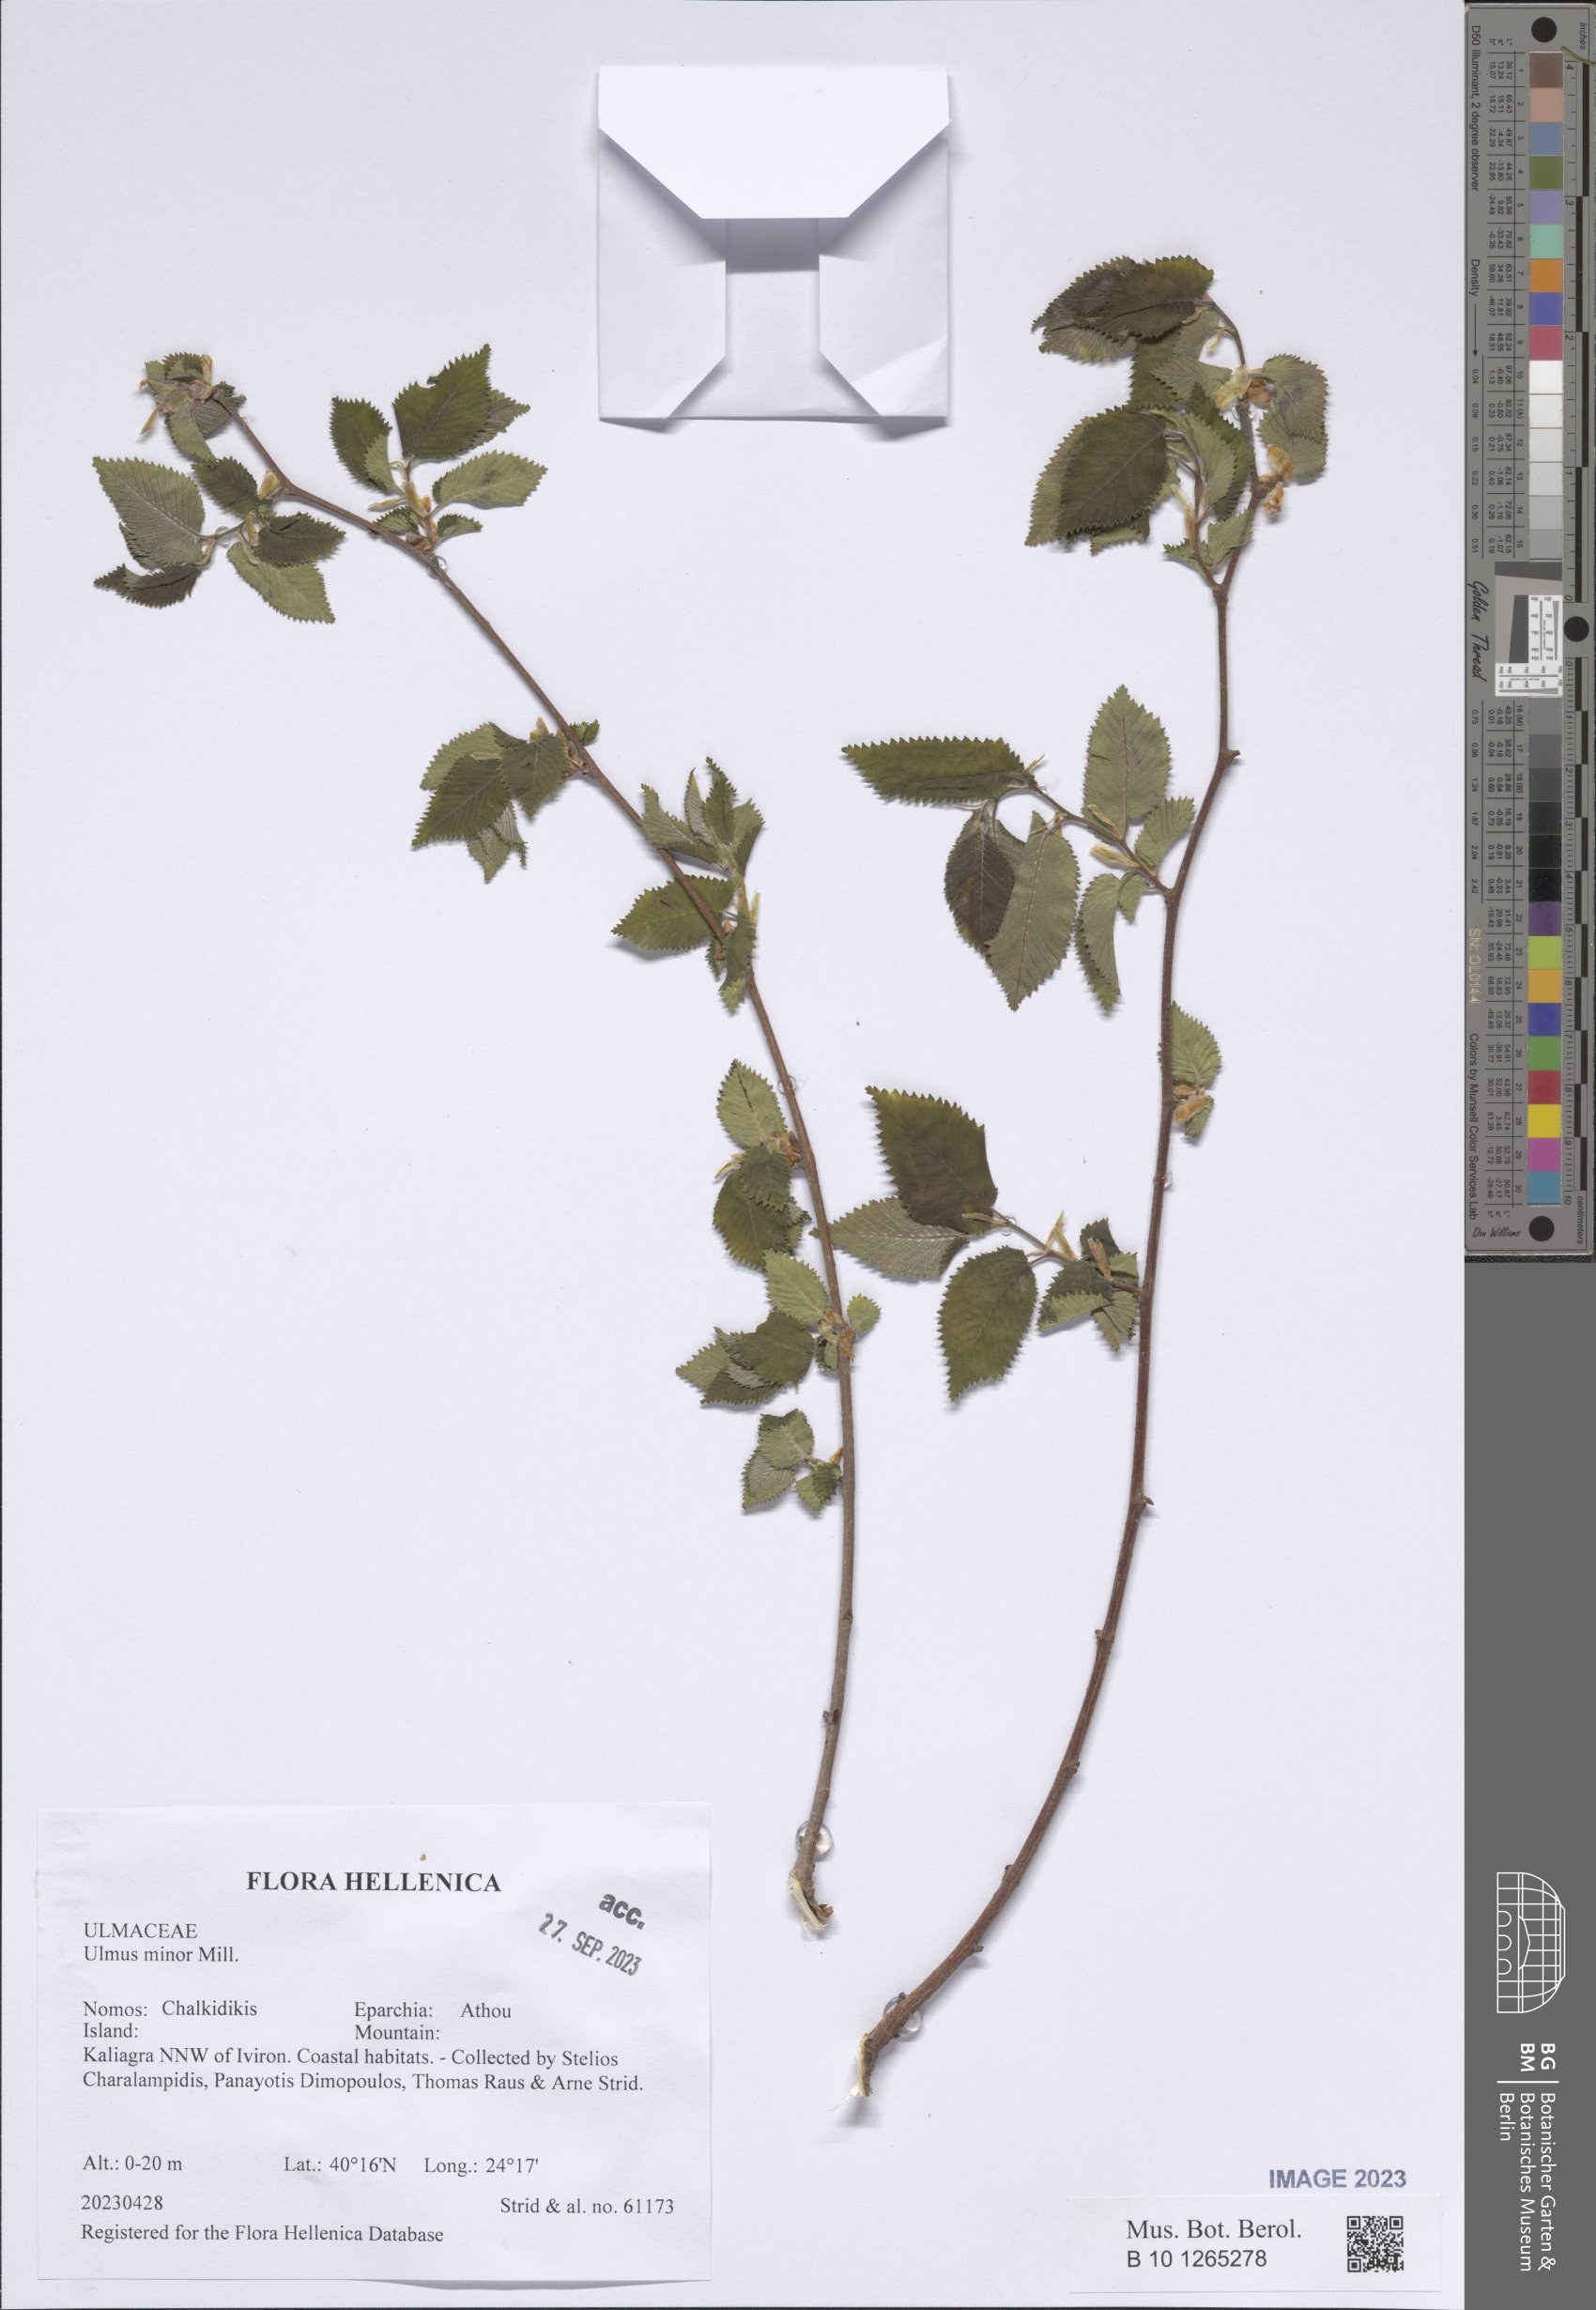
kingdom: Plantae
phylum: Tracheophyta
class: Magnoliopsida
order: Rosales
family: Ulmaceae
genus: Ulmus
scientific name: Ulmus minor
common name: Small-leaved elm
